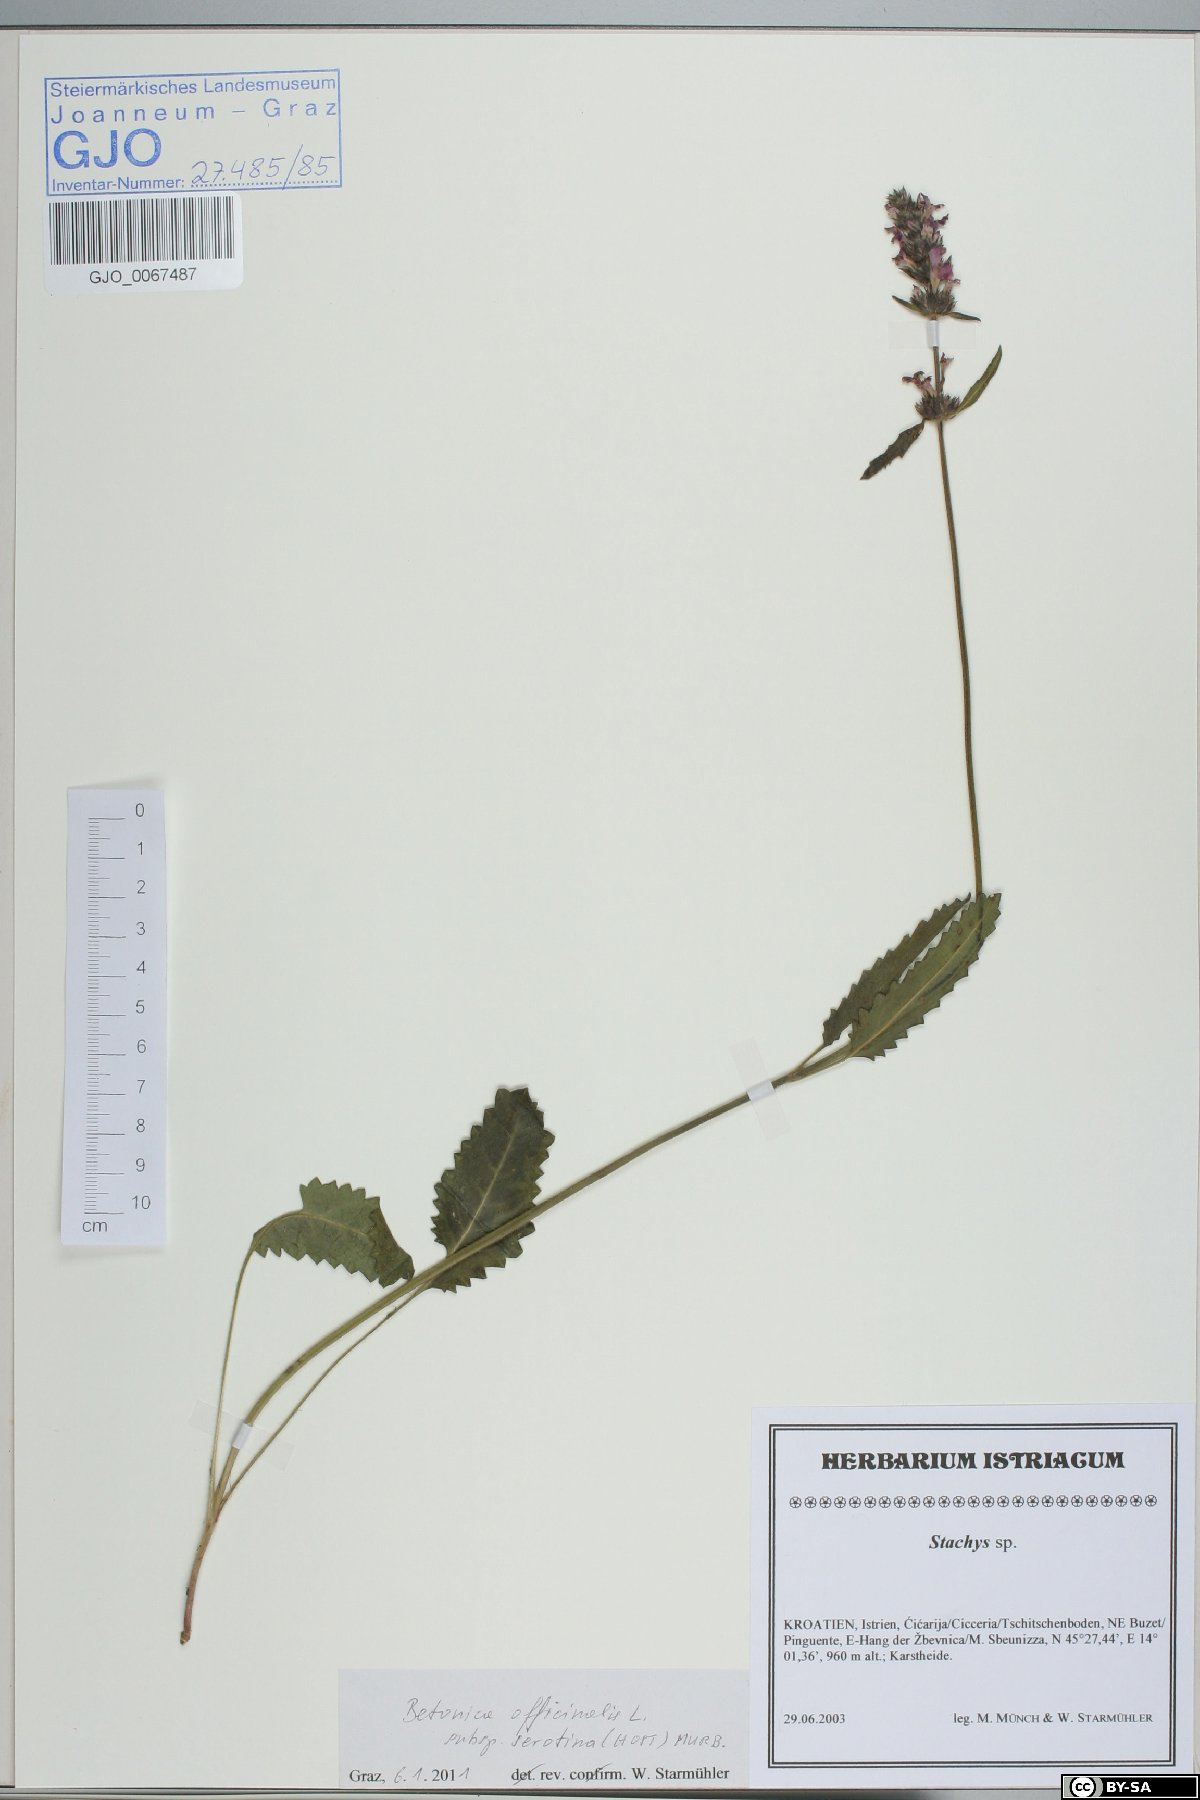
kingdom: Plantae
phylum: Tracheophyta
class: Magnoliopsida
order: Lamiales
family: Lamiaceae
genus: Betonica
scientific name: Betonica officinalis
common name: Bishop's-wort
